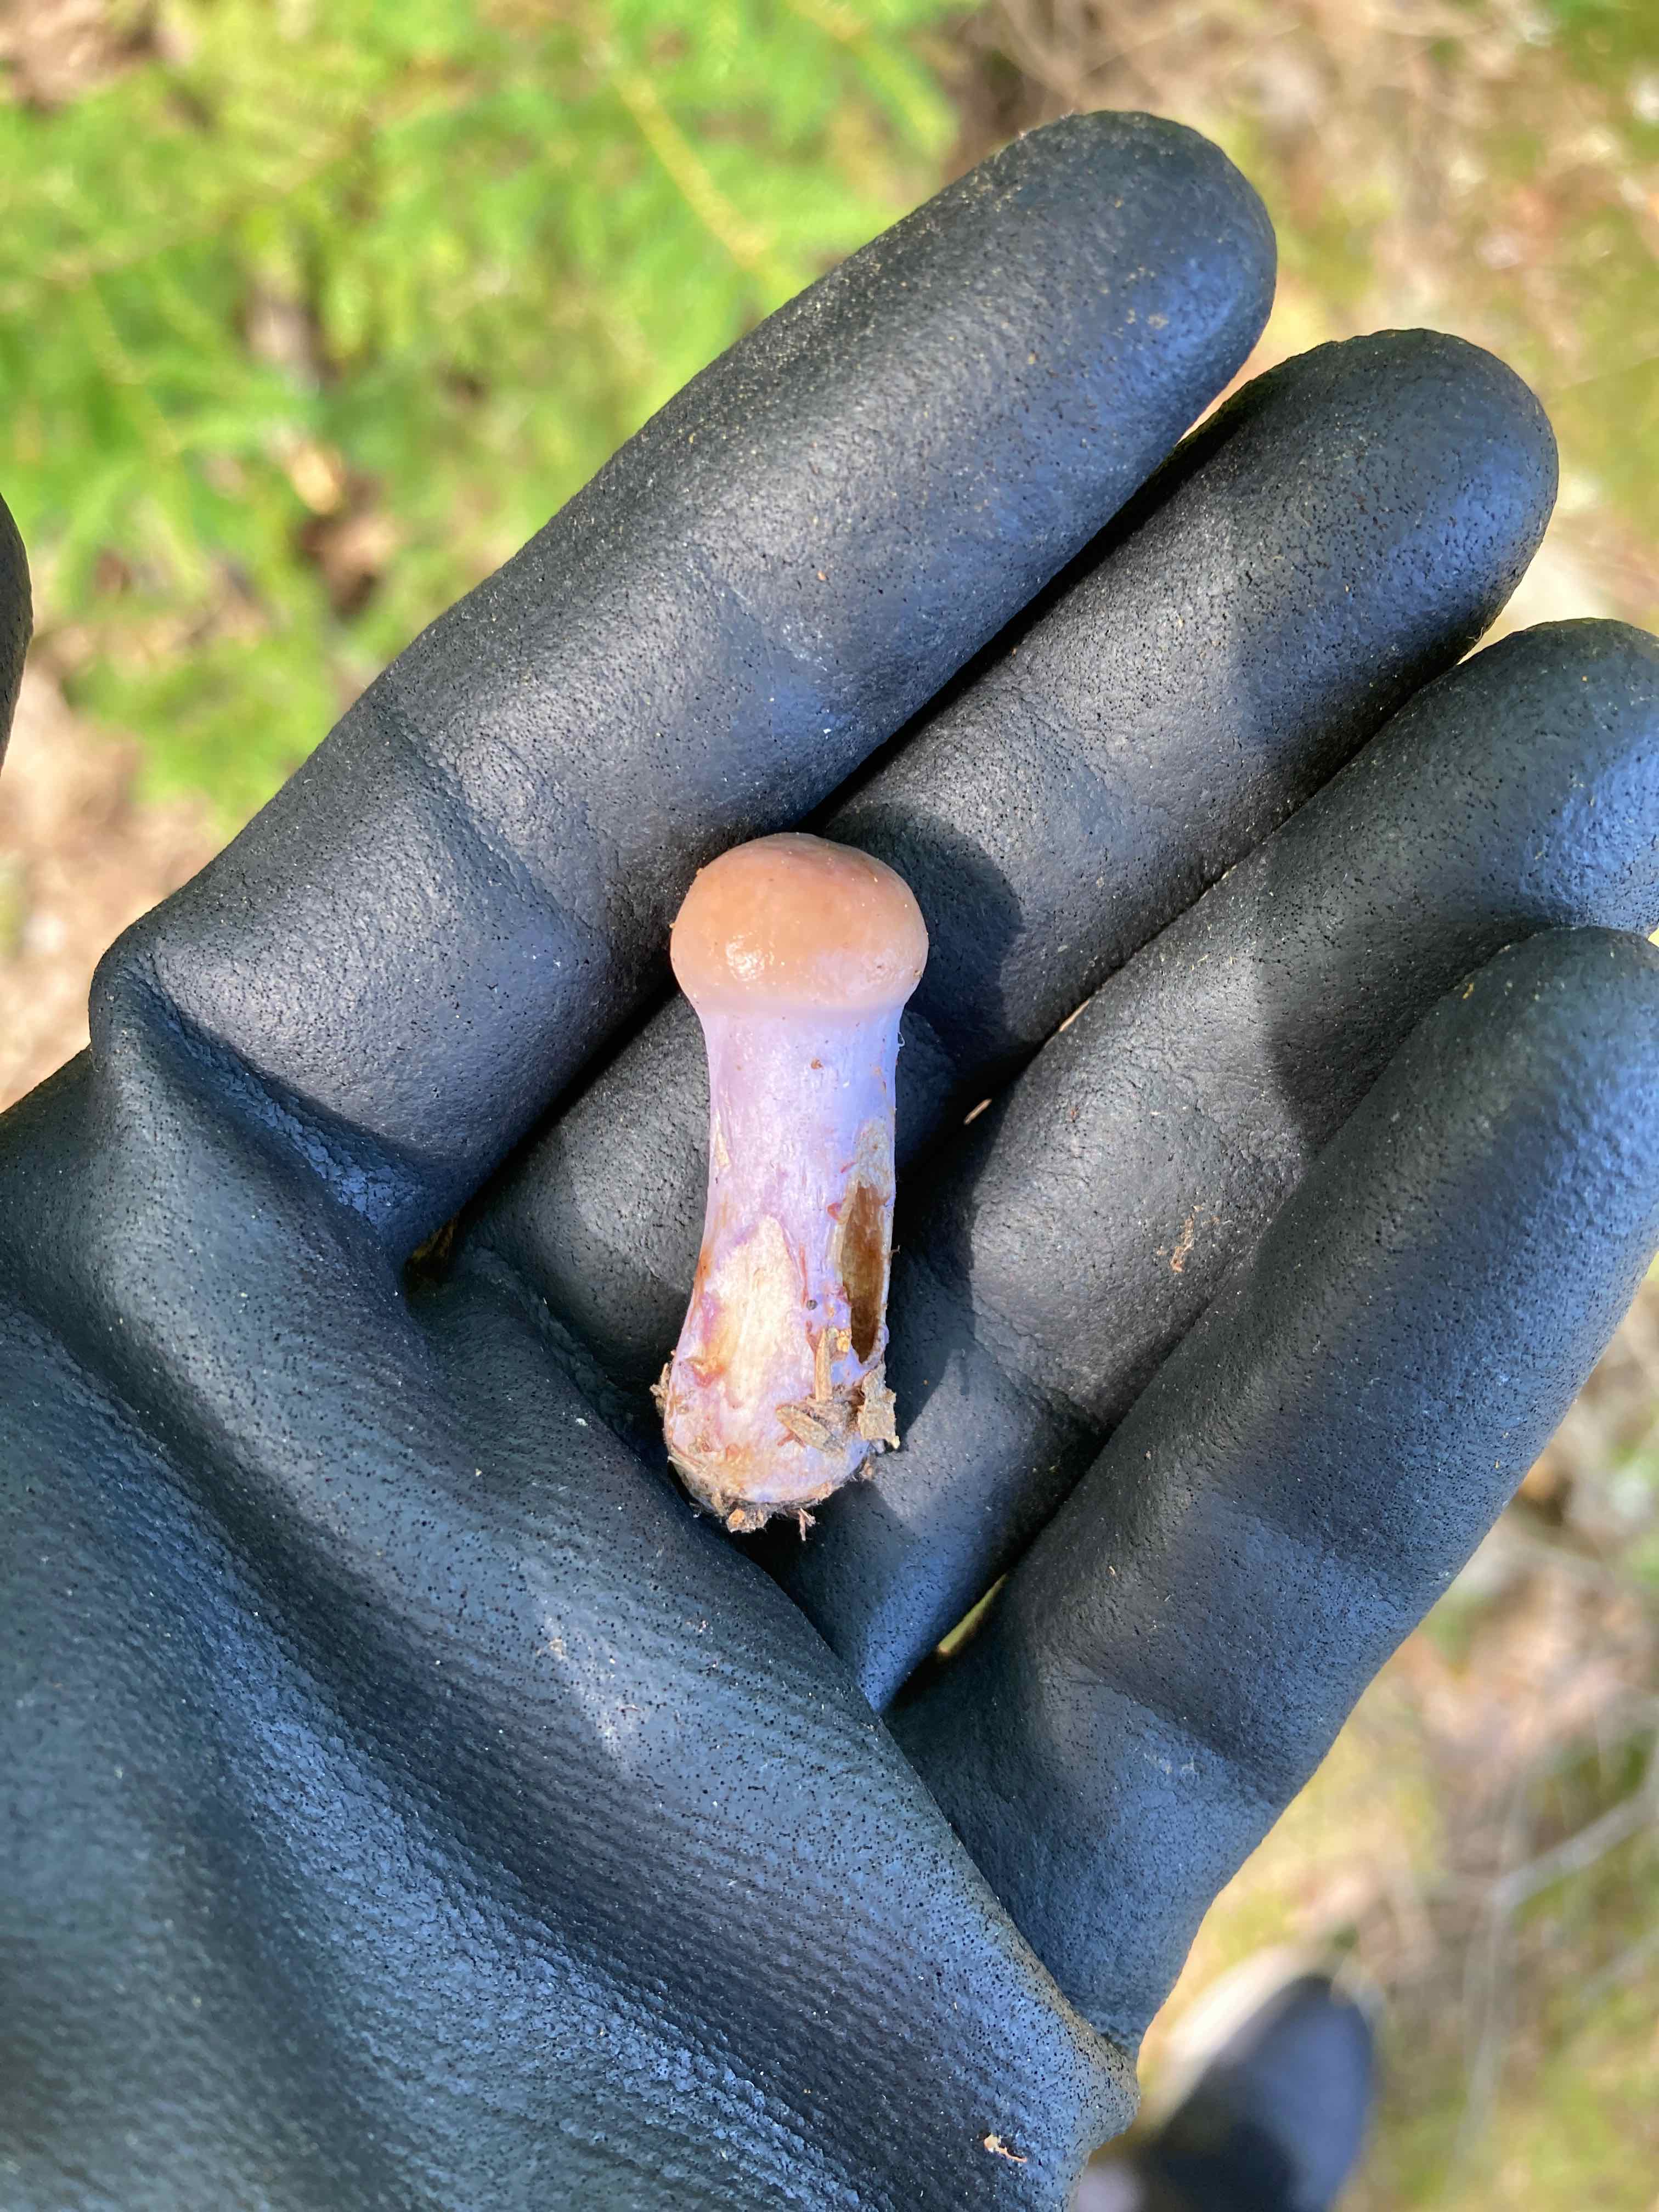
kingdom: Fungi
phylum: Basidiomycota
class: Agaricomycetes
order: Agaricales
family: Cortinariaceae
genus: Cortinarius
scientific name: Cortinarius
